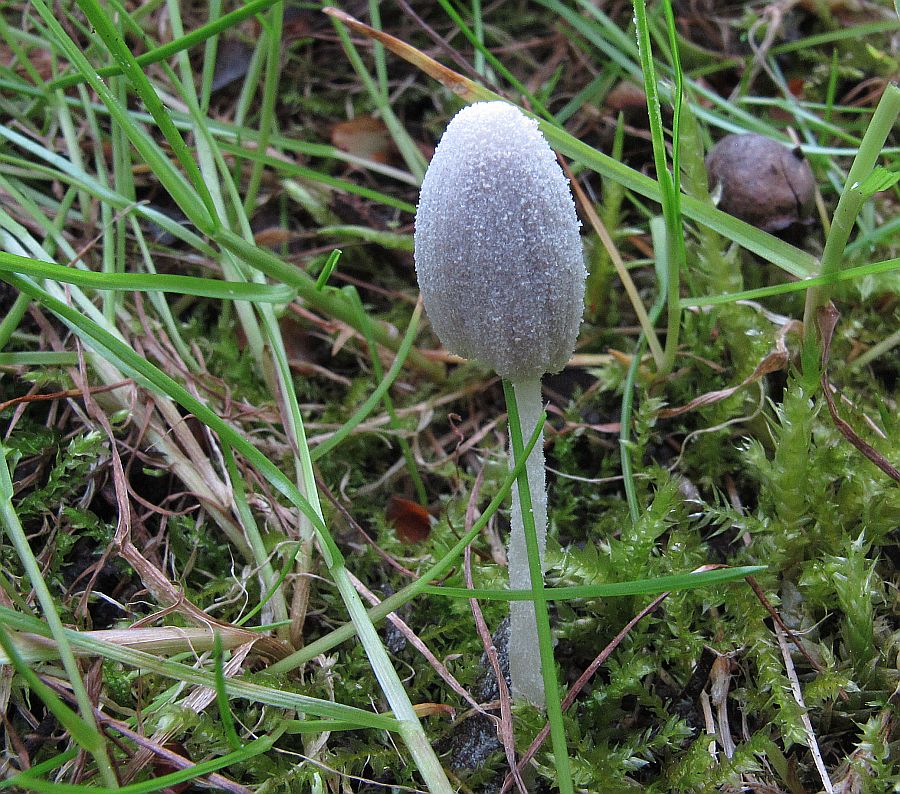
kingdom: Fungi
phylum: Basidiomycota
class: Agaricomycetes
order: Agaricales
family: Psathyrellaceae
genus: Coprinopsis
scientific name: Coprinopsis candidata
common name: hvidklædt blækhat
